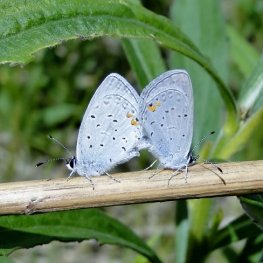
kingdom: Animalia
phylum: Arthropoda
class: Insecta
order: Lepidoptera
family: Lycaenidae
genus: Elkalyce
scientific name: Elkalyce comyntas
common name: Eastern Tailed-Blue
